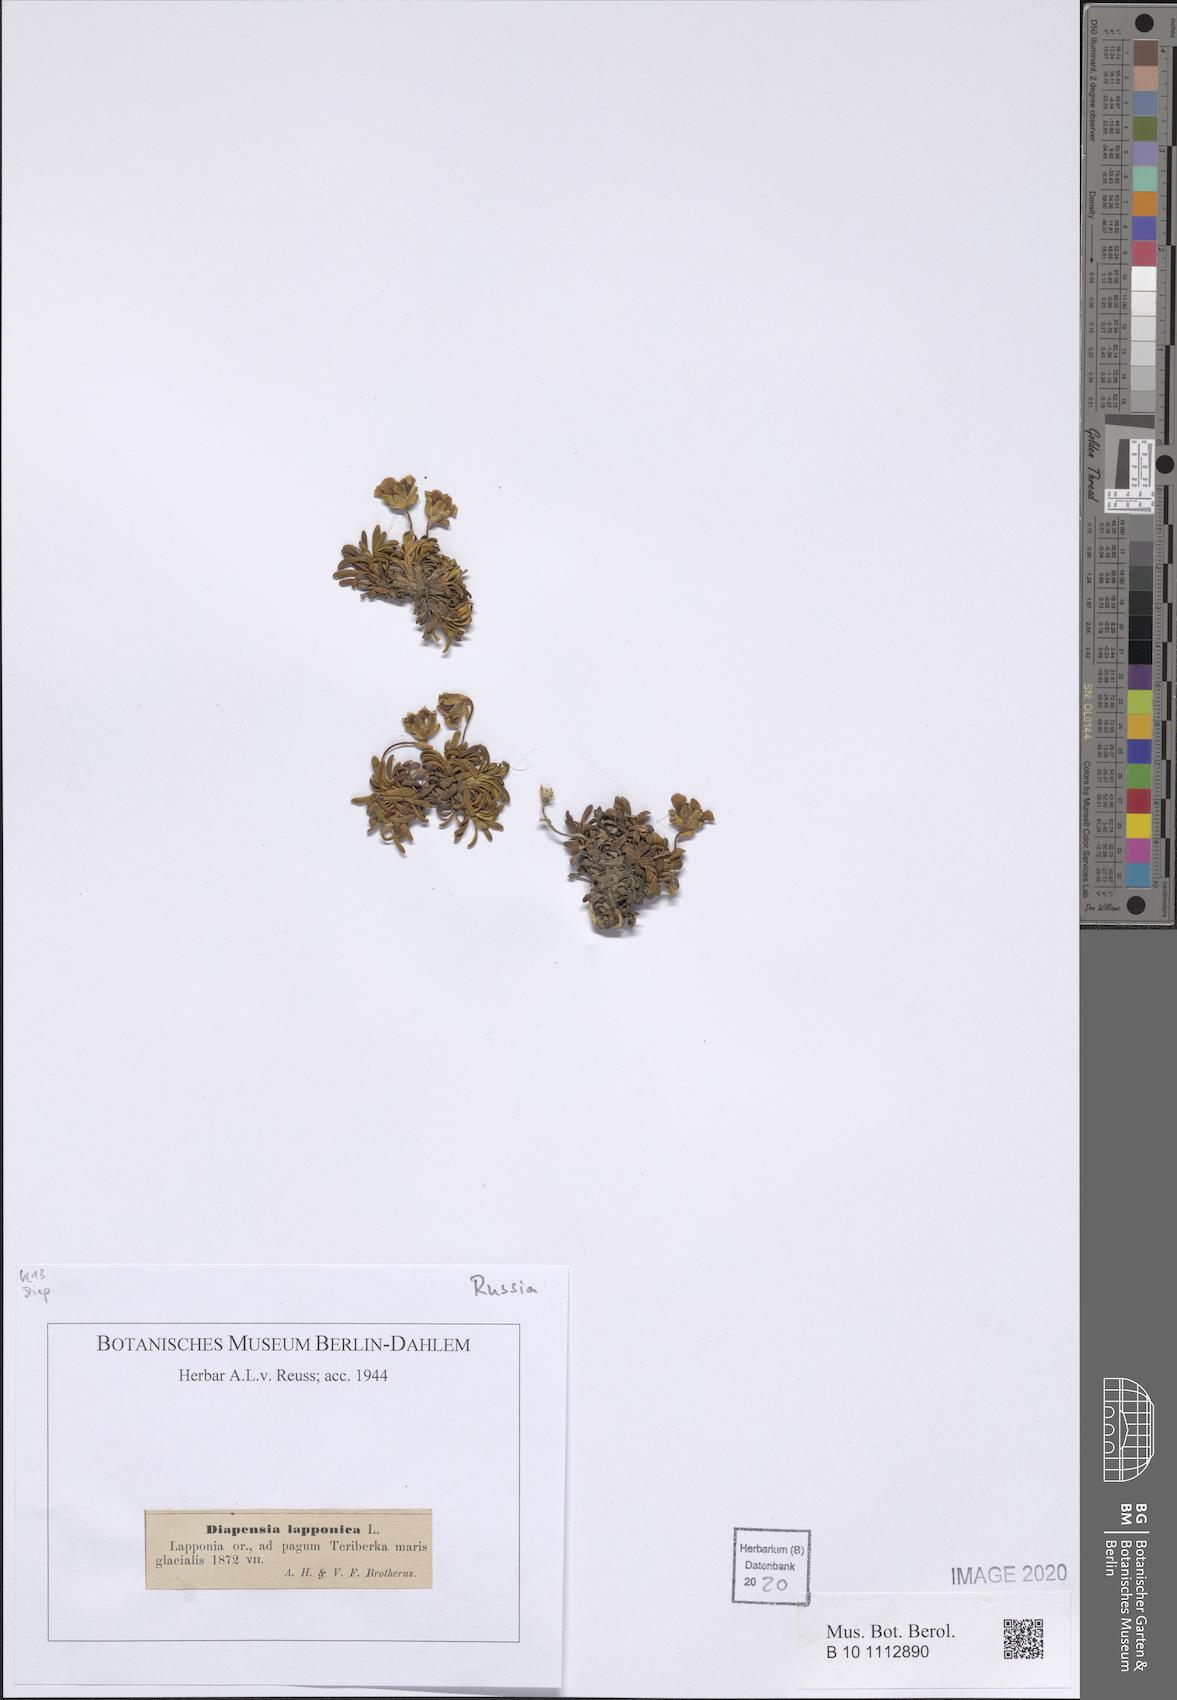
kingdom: Plantae
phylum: Tracheophyta
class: Magnoliopsida
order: Ericales
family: Diapensiaceae
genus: Diapensia
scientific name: Diapensia lapponica
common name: Diapensia
